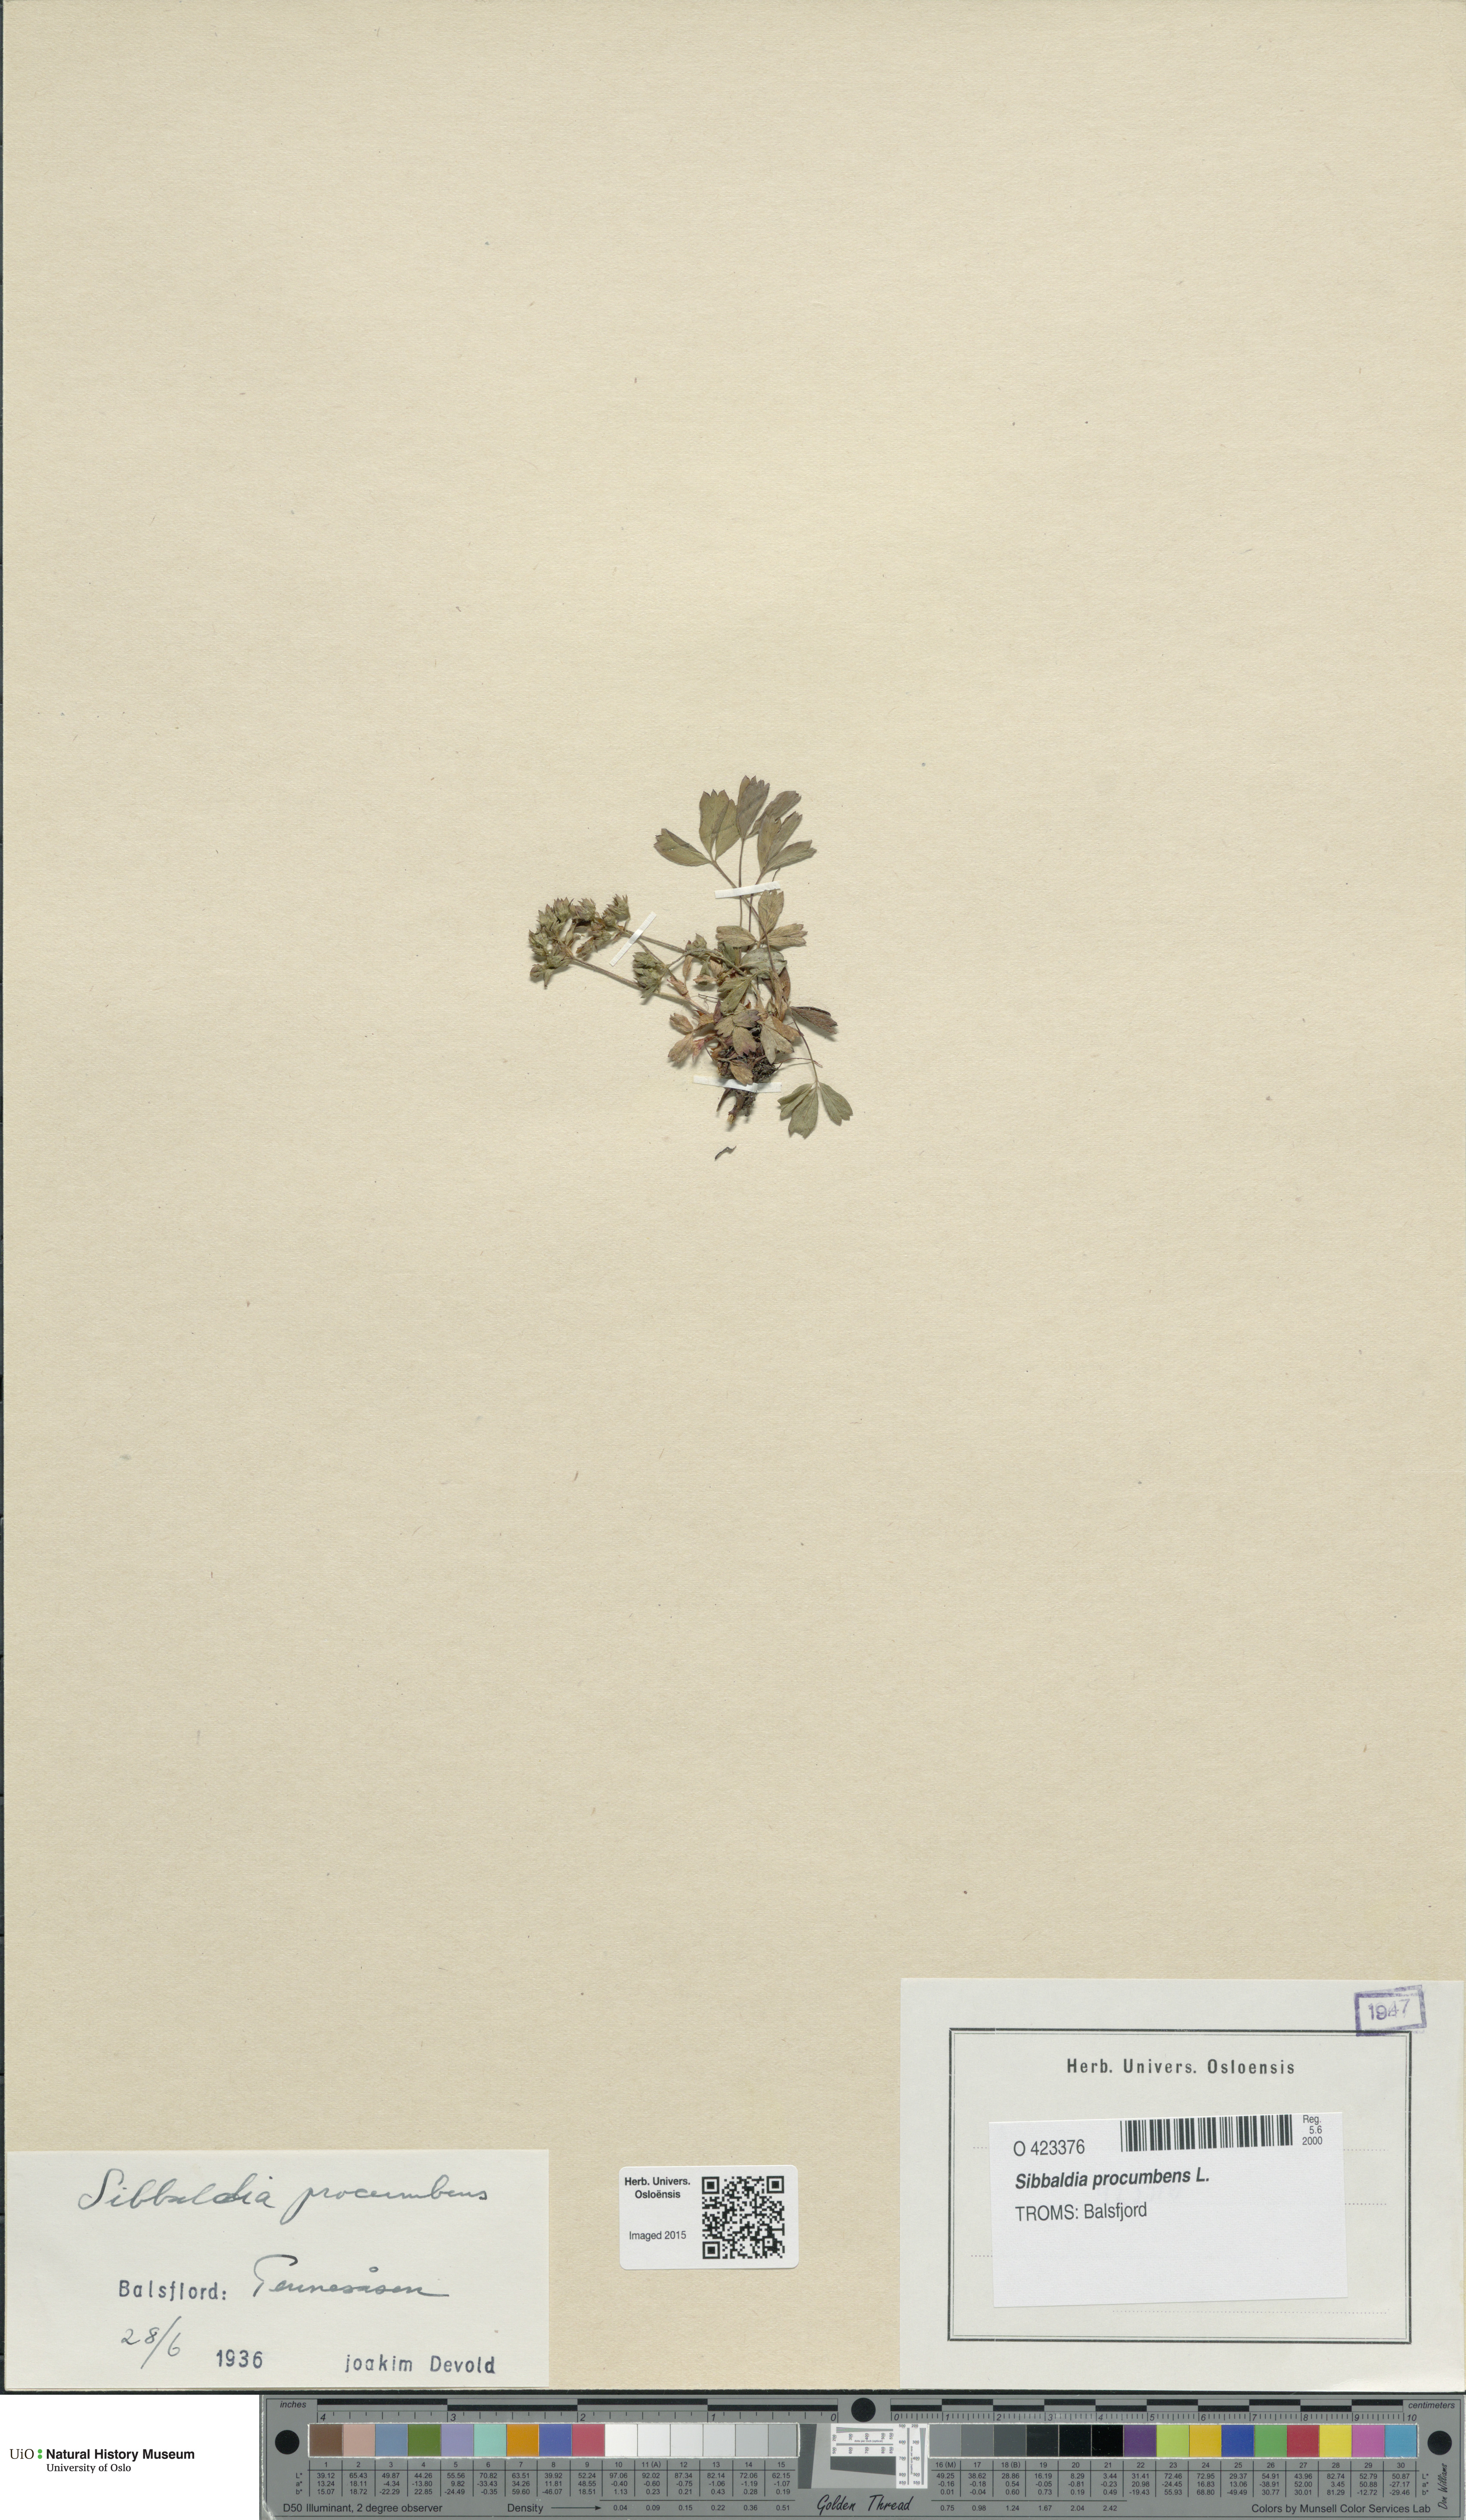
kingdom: Plantae
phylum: Tracheophyta
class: Magnoliopsida
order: Rosales
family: Rosaceae
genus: Sibbaldia
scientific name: Sibbaldia procumbens
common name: Creeping sibbaldia
